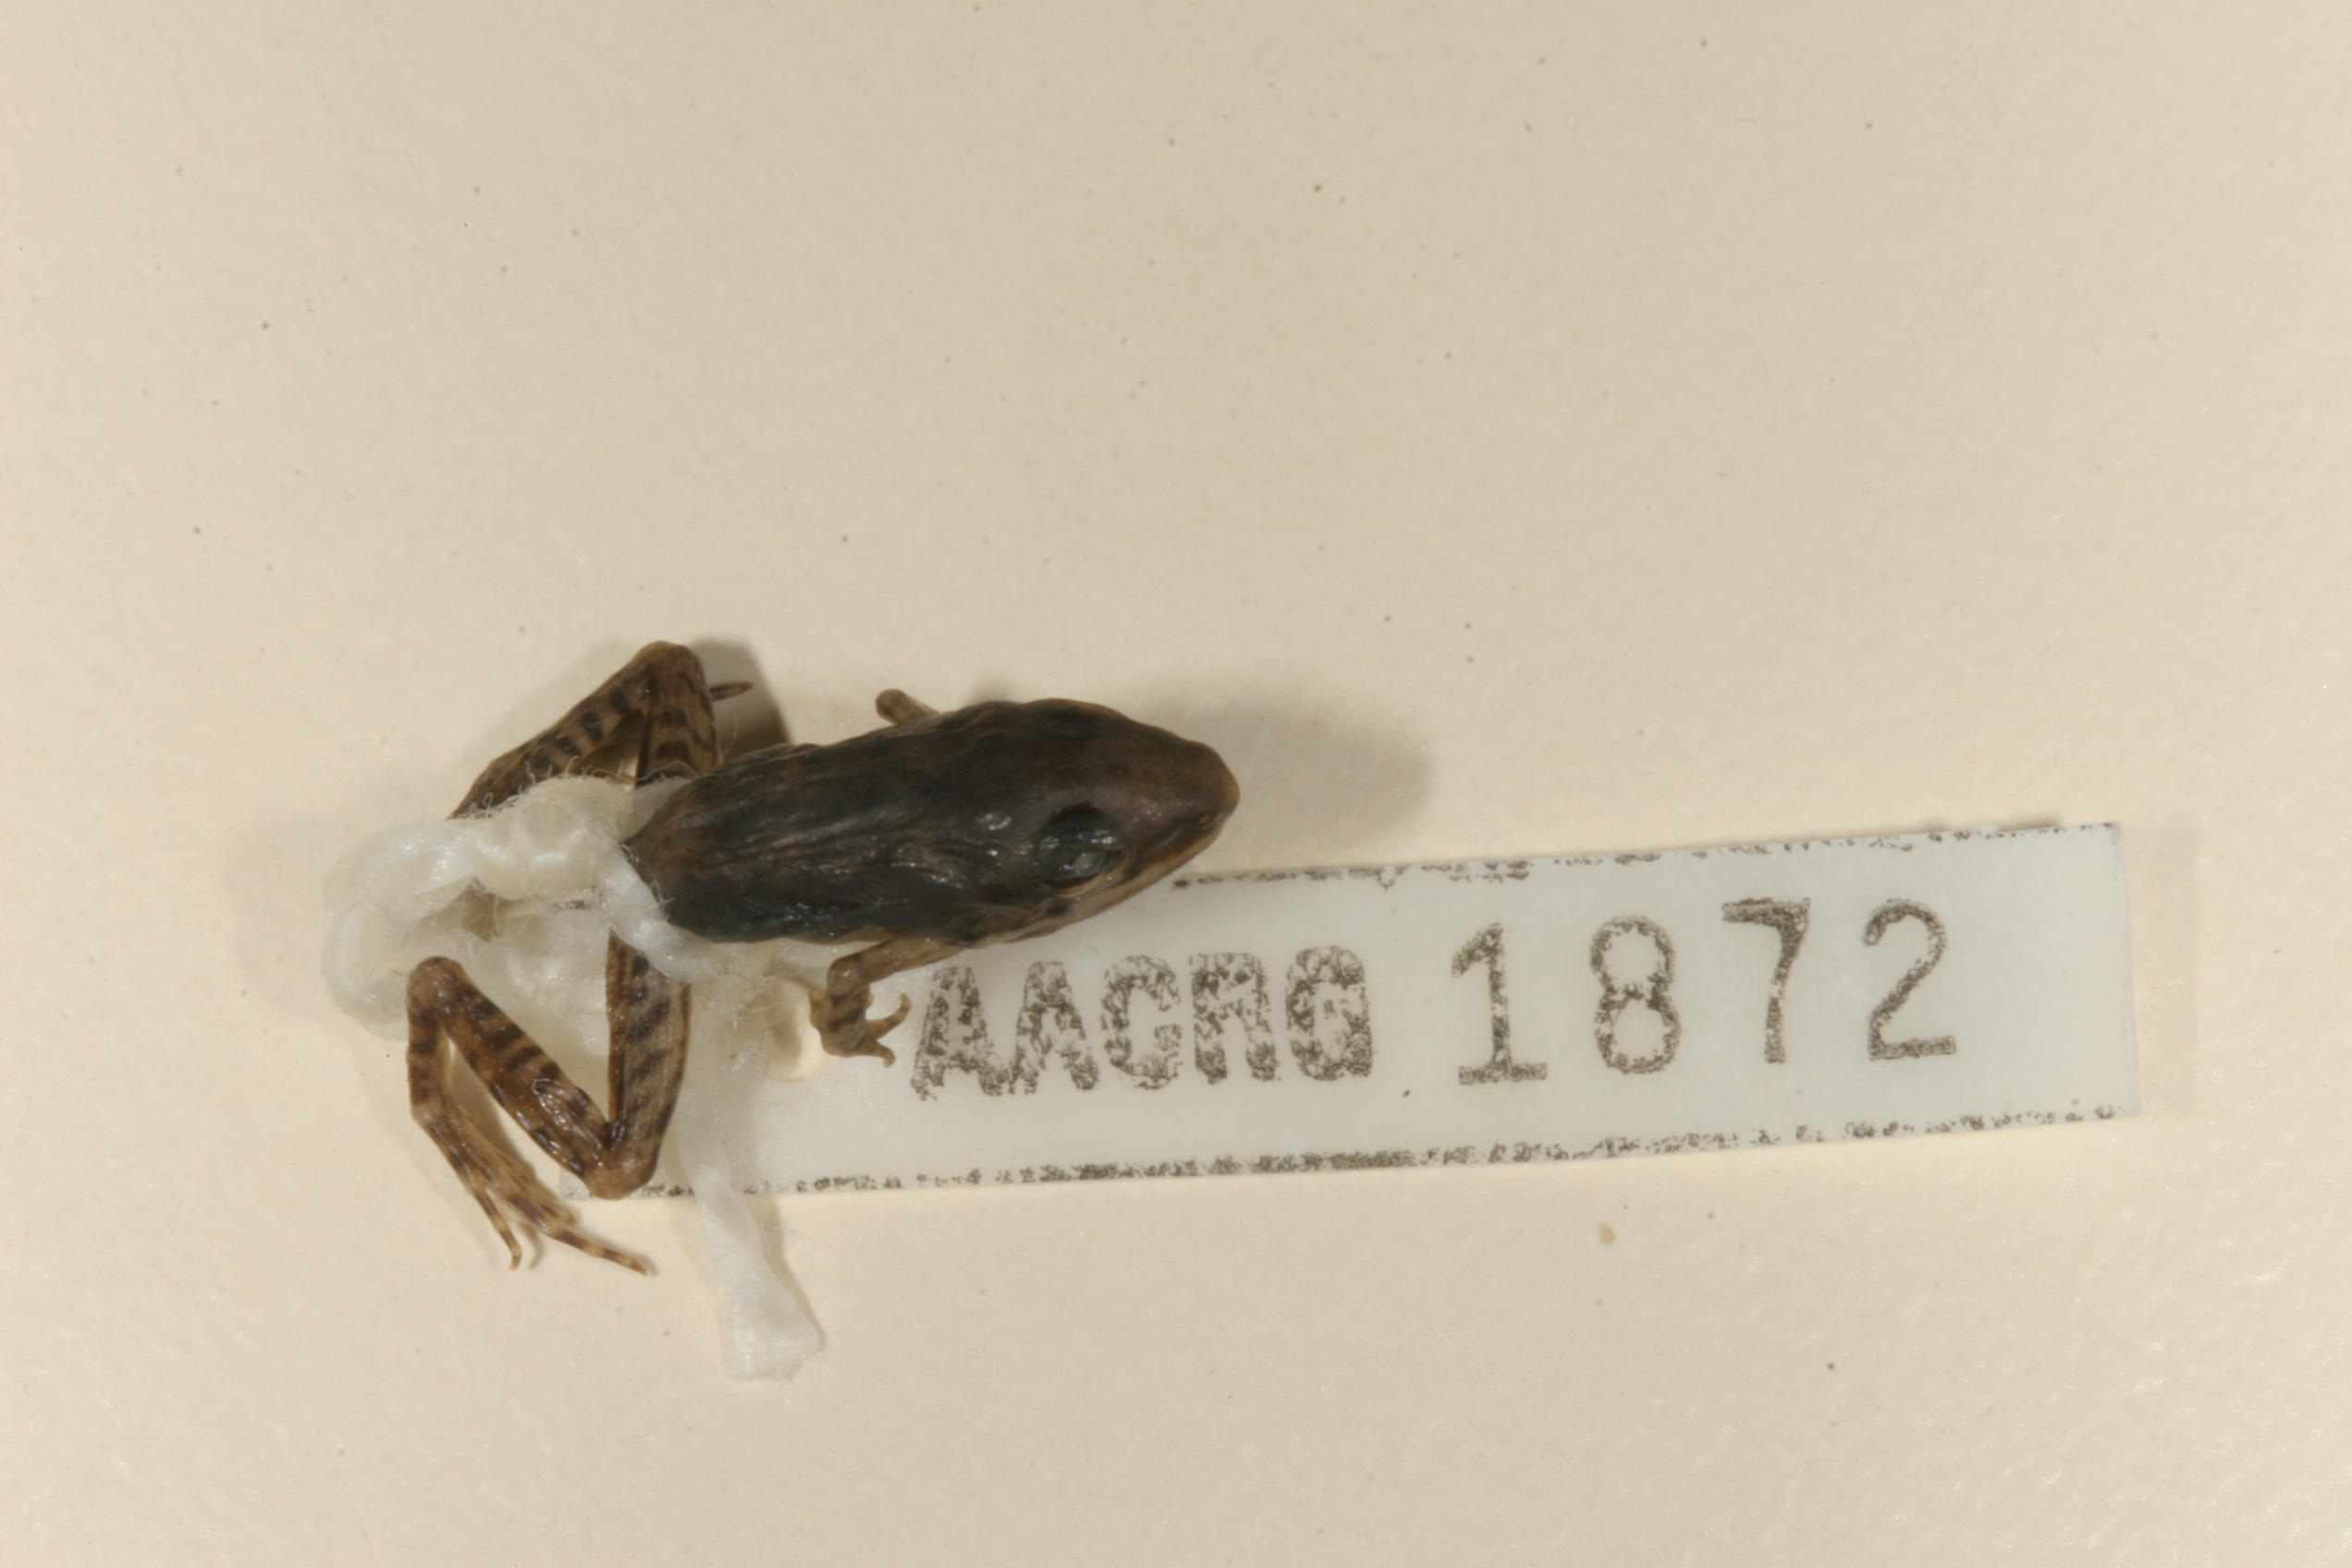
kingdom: Animalia
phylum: Chordata
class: Amphibia
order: Anura
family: Ptychadenidae
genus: Ptychadena
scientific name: Ptychadena anchietae
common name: Anchieta's ridged frog
